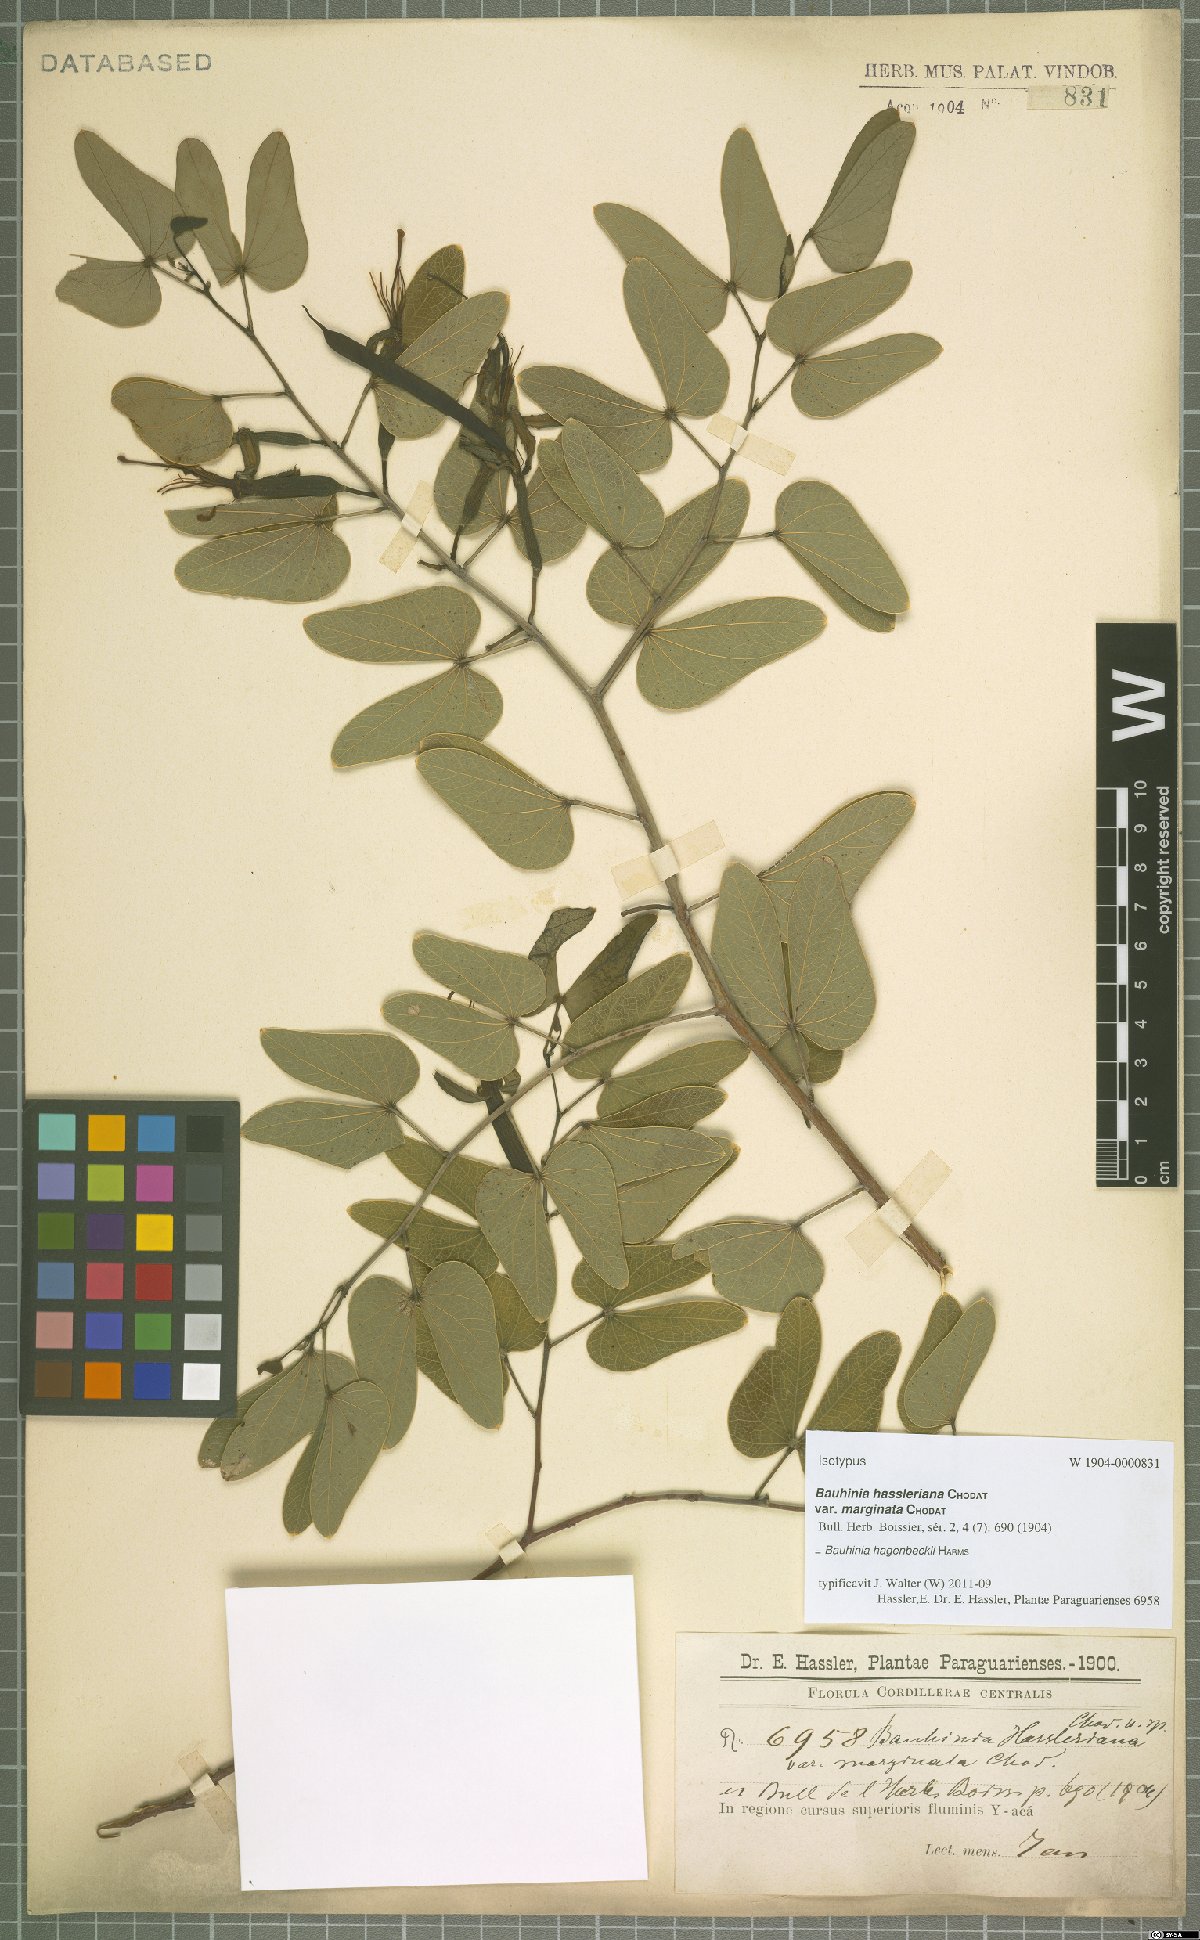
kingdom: Plantae
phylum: Tracheophyta
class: Magnoliopsida
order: Fabales
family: Fabaceae
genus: Bauhinia
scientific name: Bauhinia hagenbeckii
